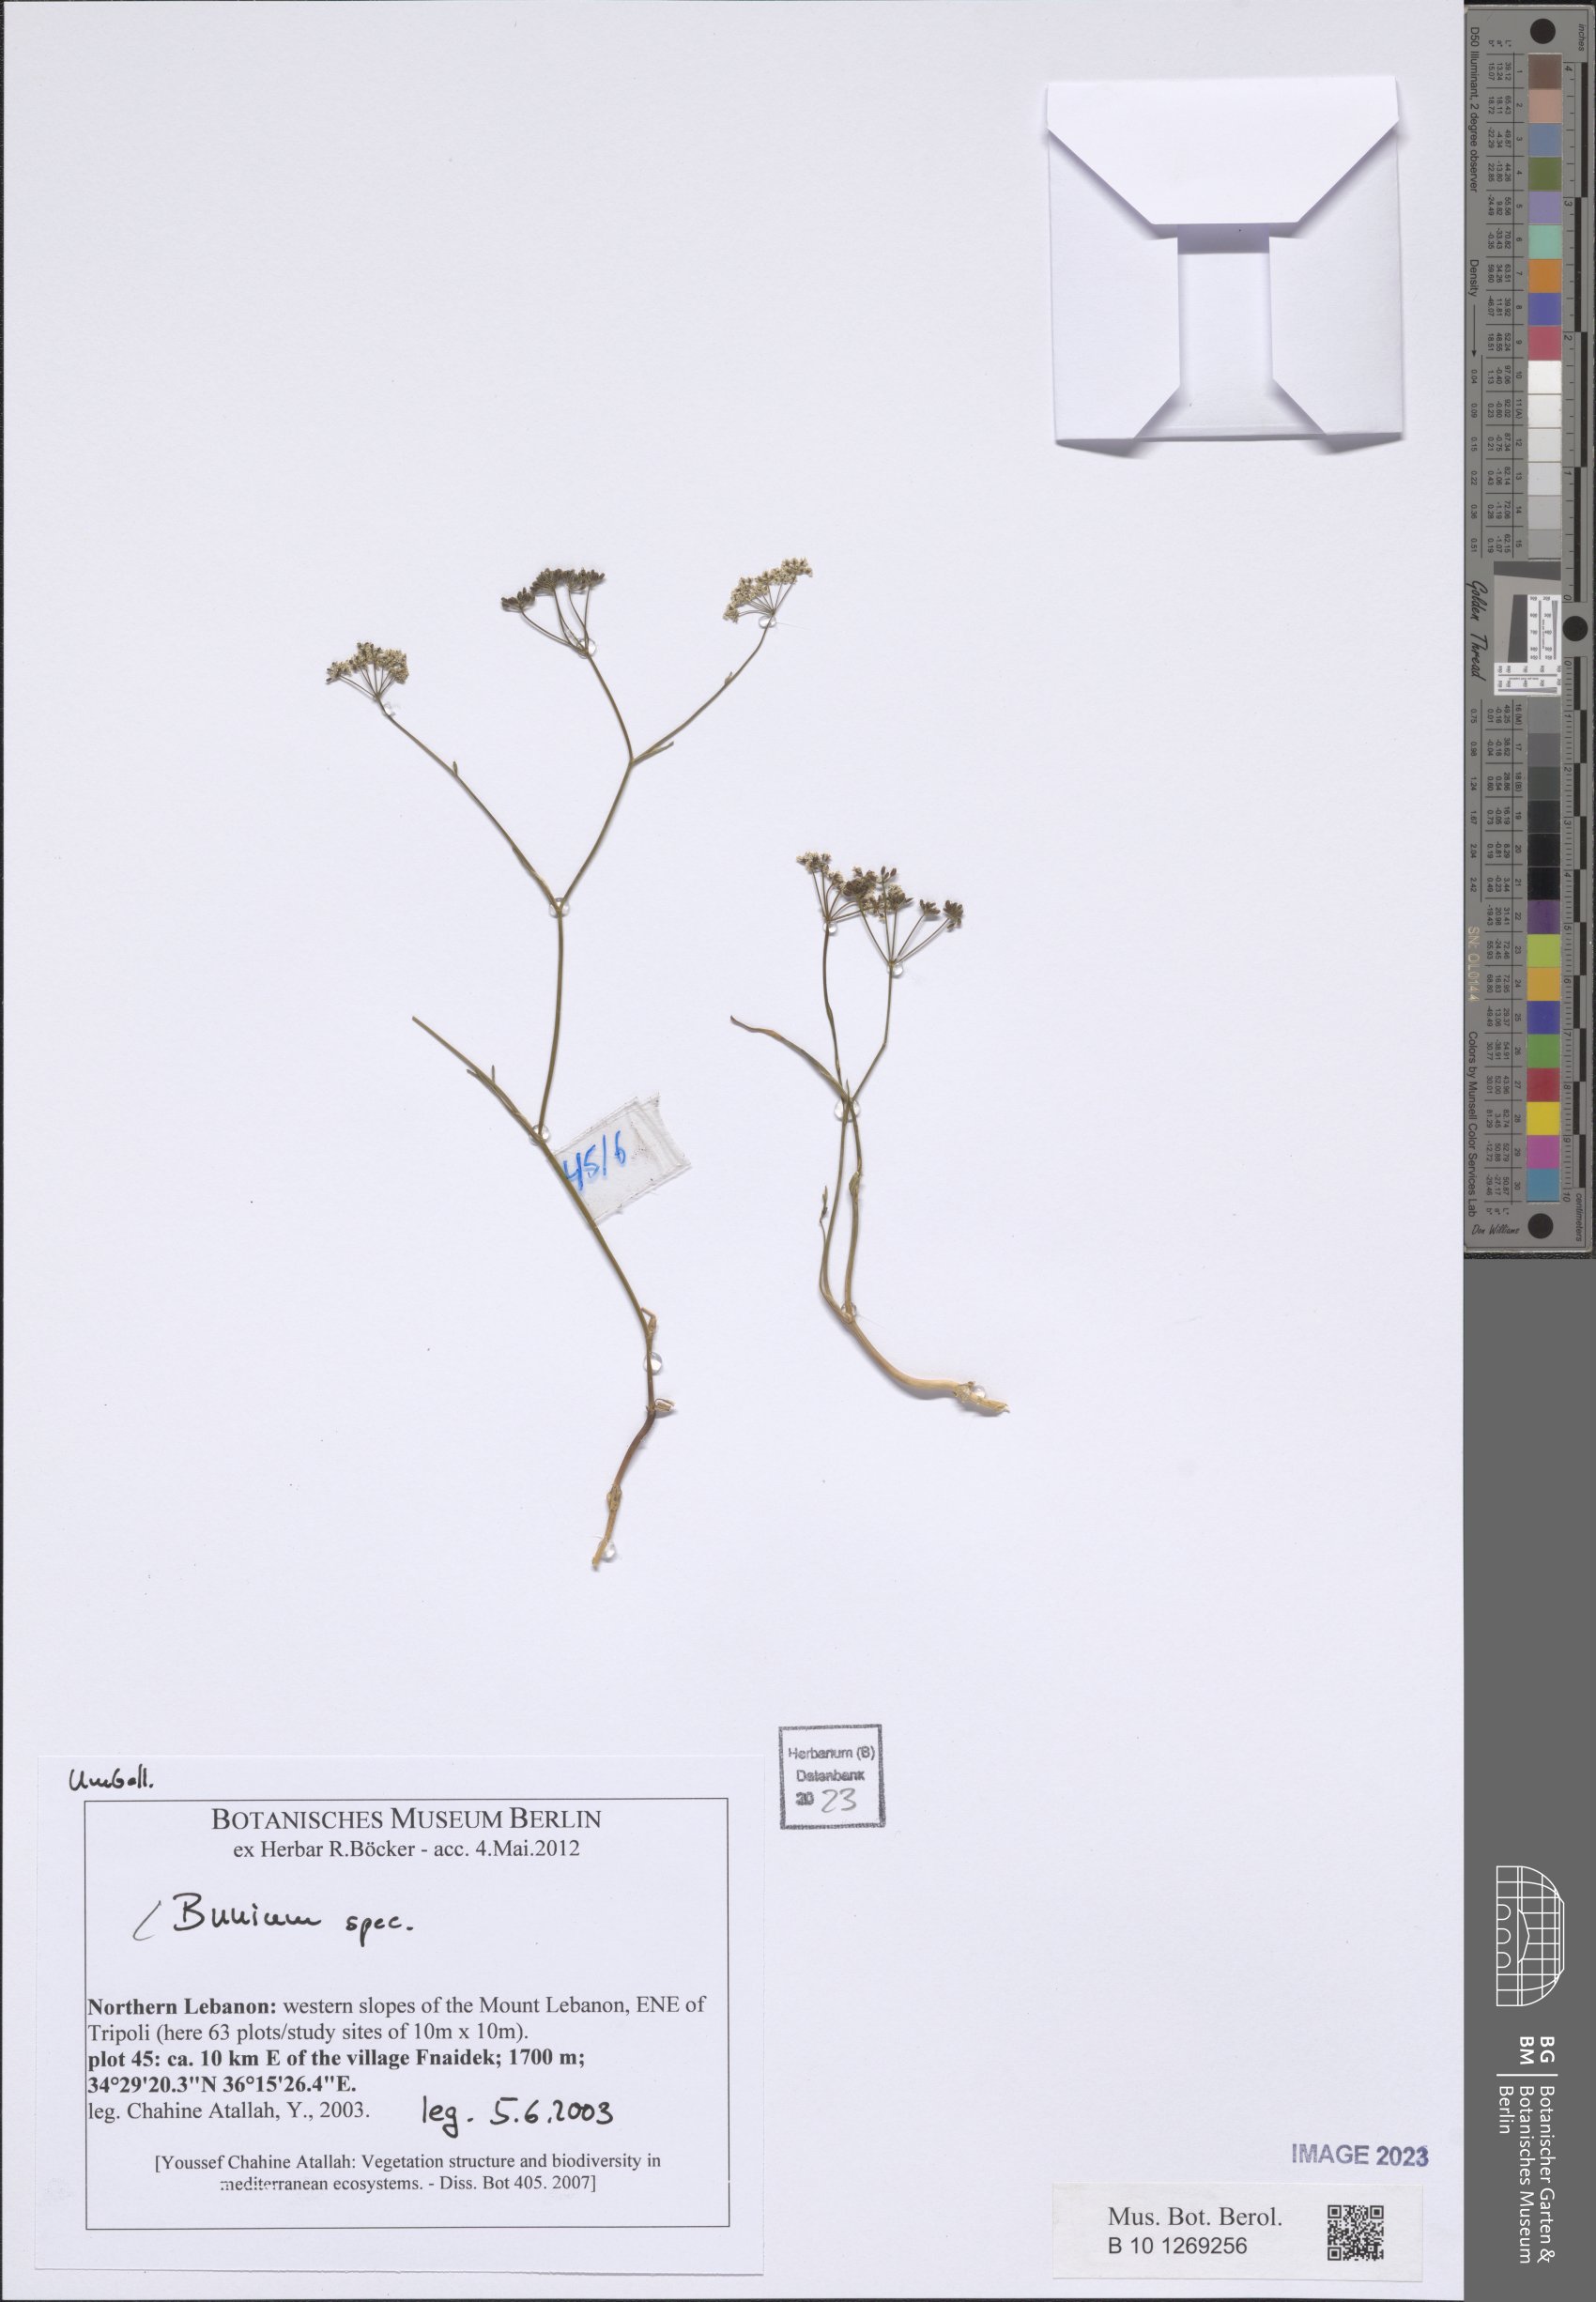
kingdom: Plantae
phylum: Tracheophyta
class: Magnoliopsida
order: Apiales
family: Apiaceae
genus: Bunium
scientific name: Bunium
